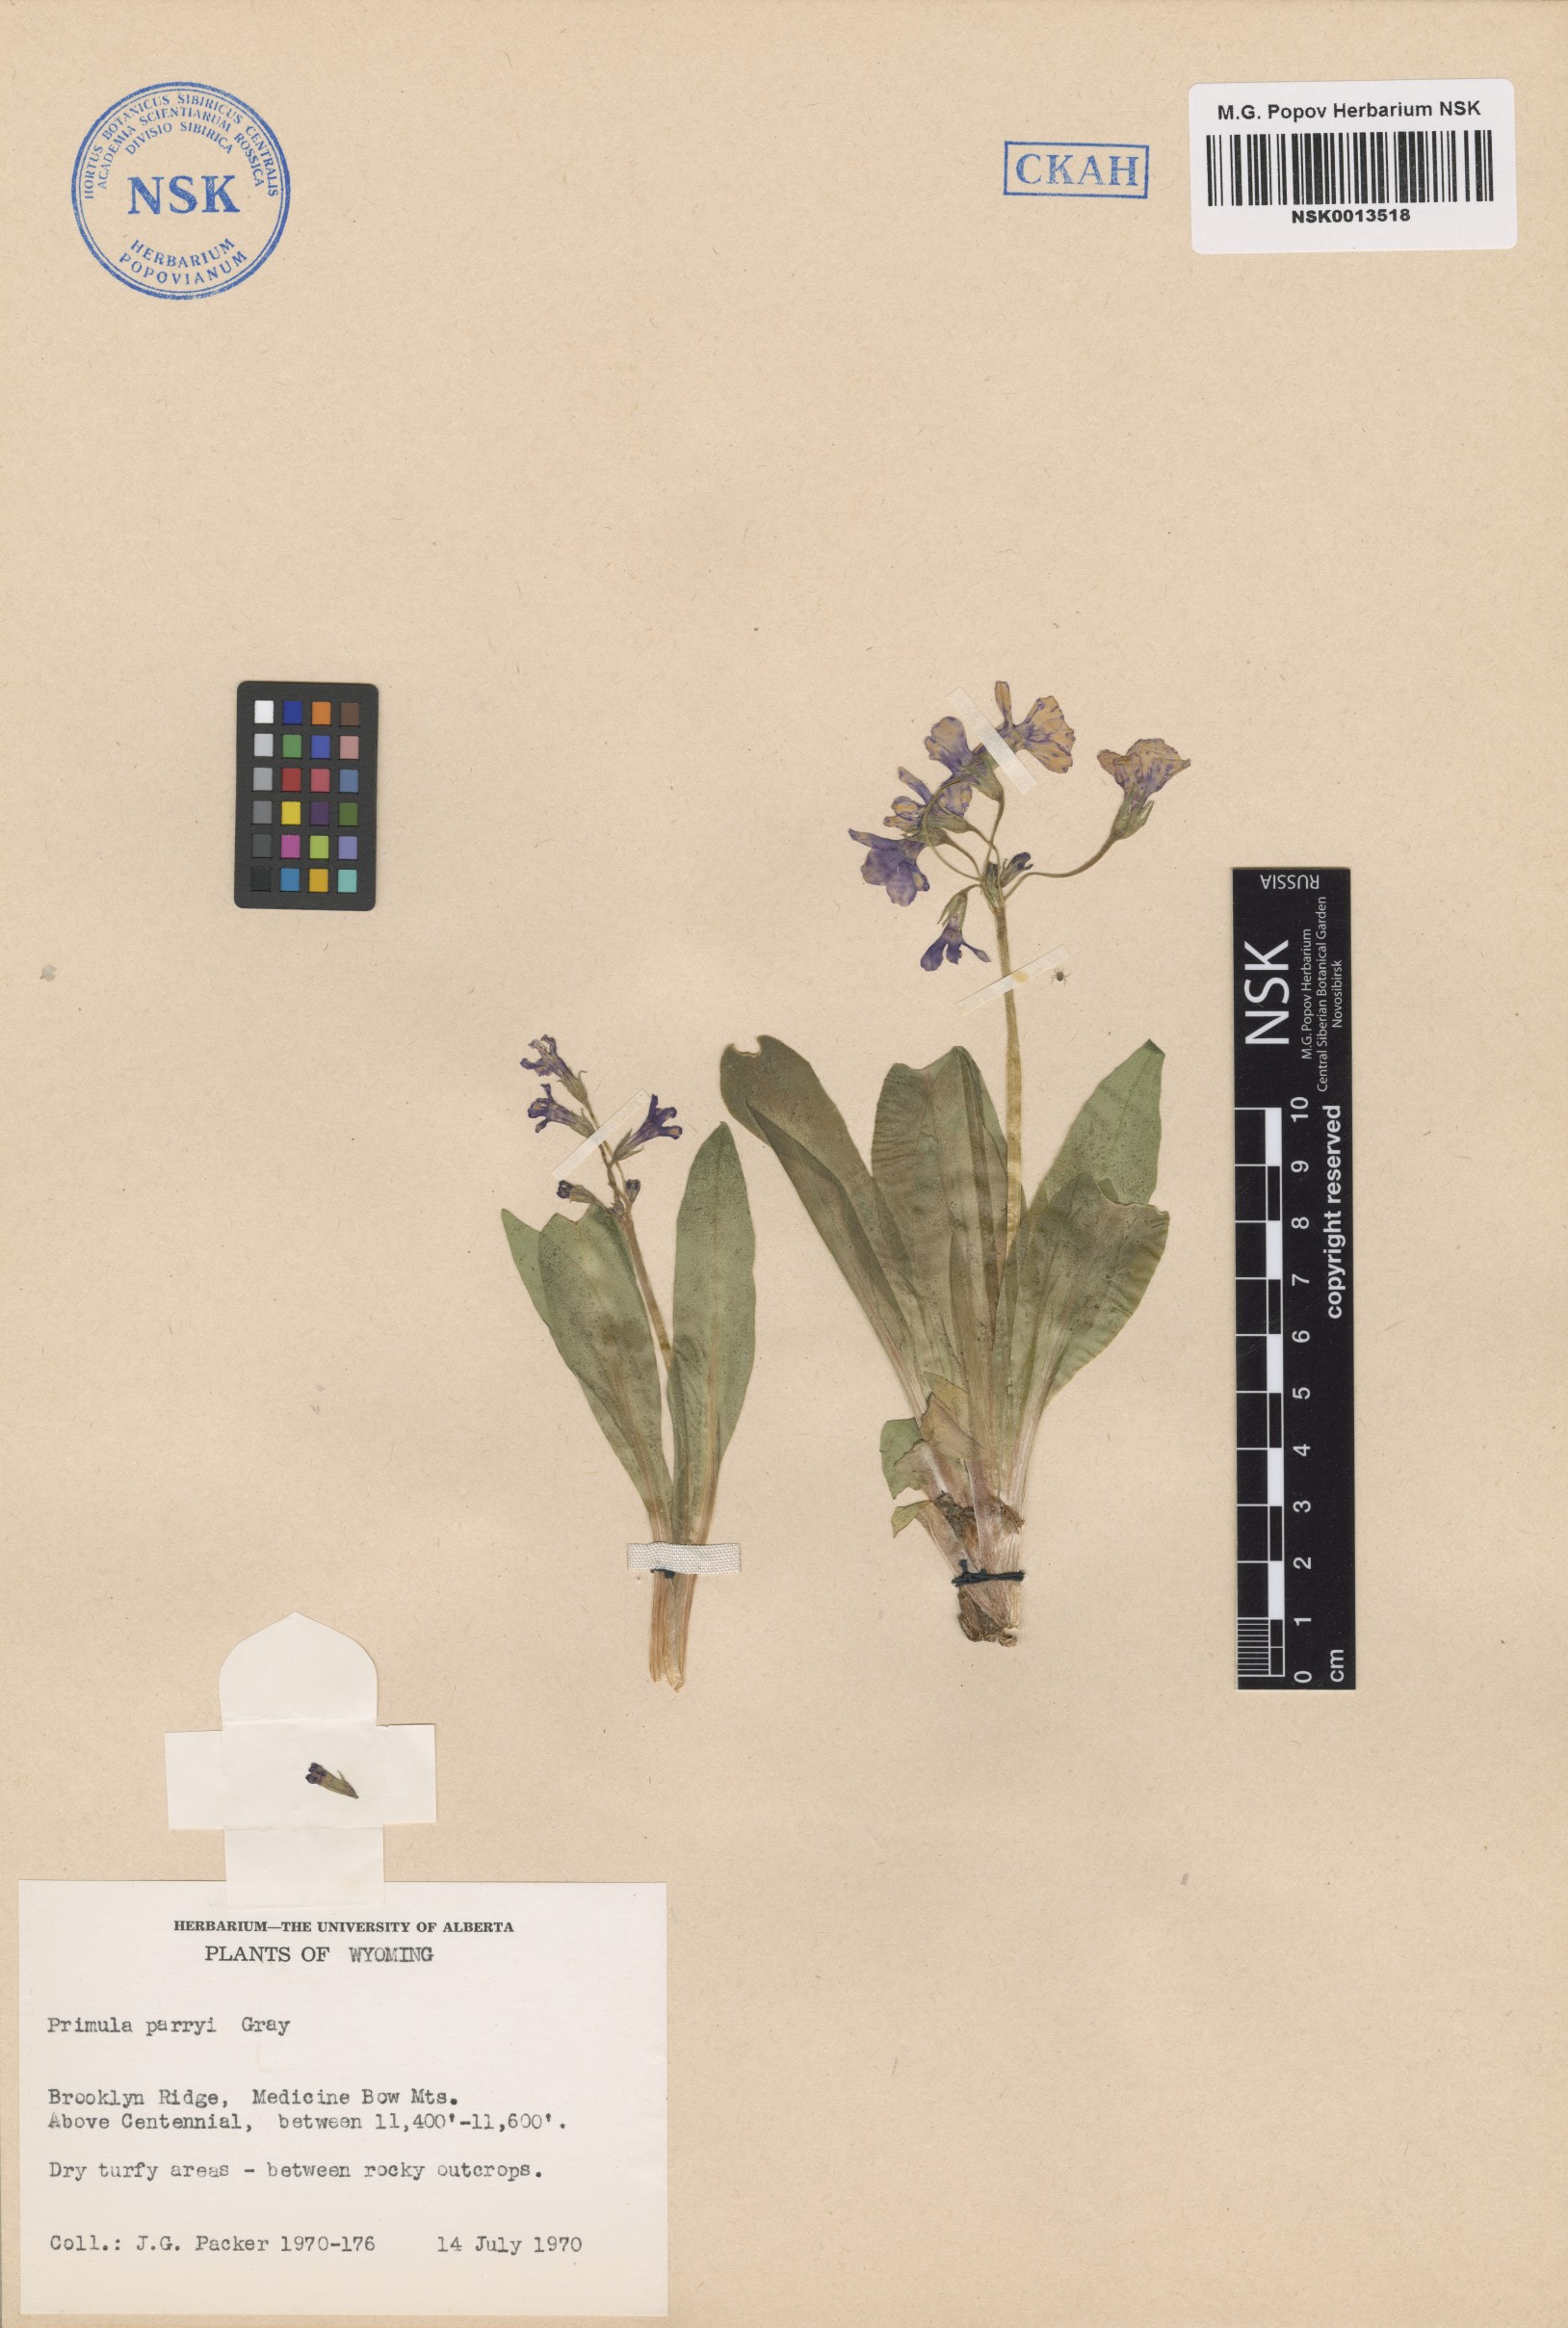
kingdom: Plantae
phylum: Tracheophyta
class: Magnoliopsida
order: Ericales
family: Primulaceae
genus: Primula
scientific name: Primula parryi
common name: Parry's primrose
